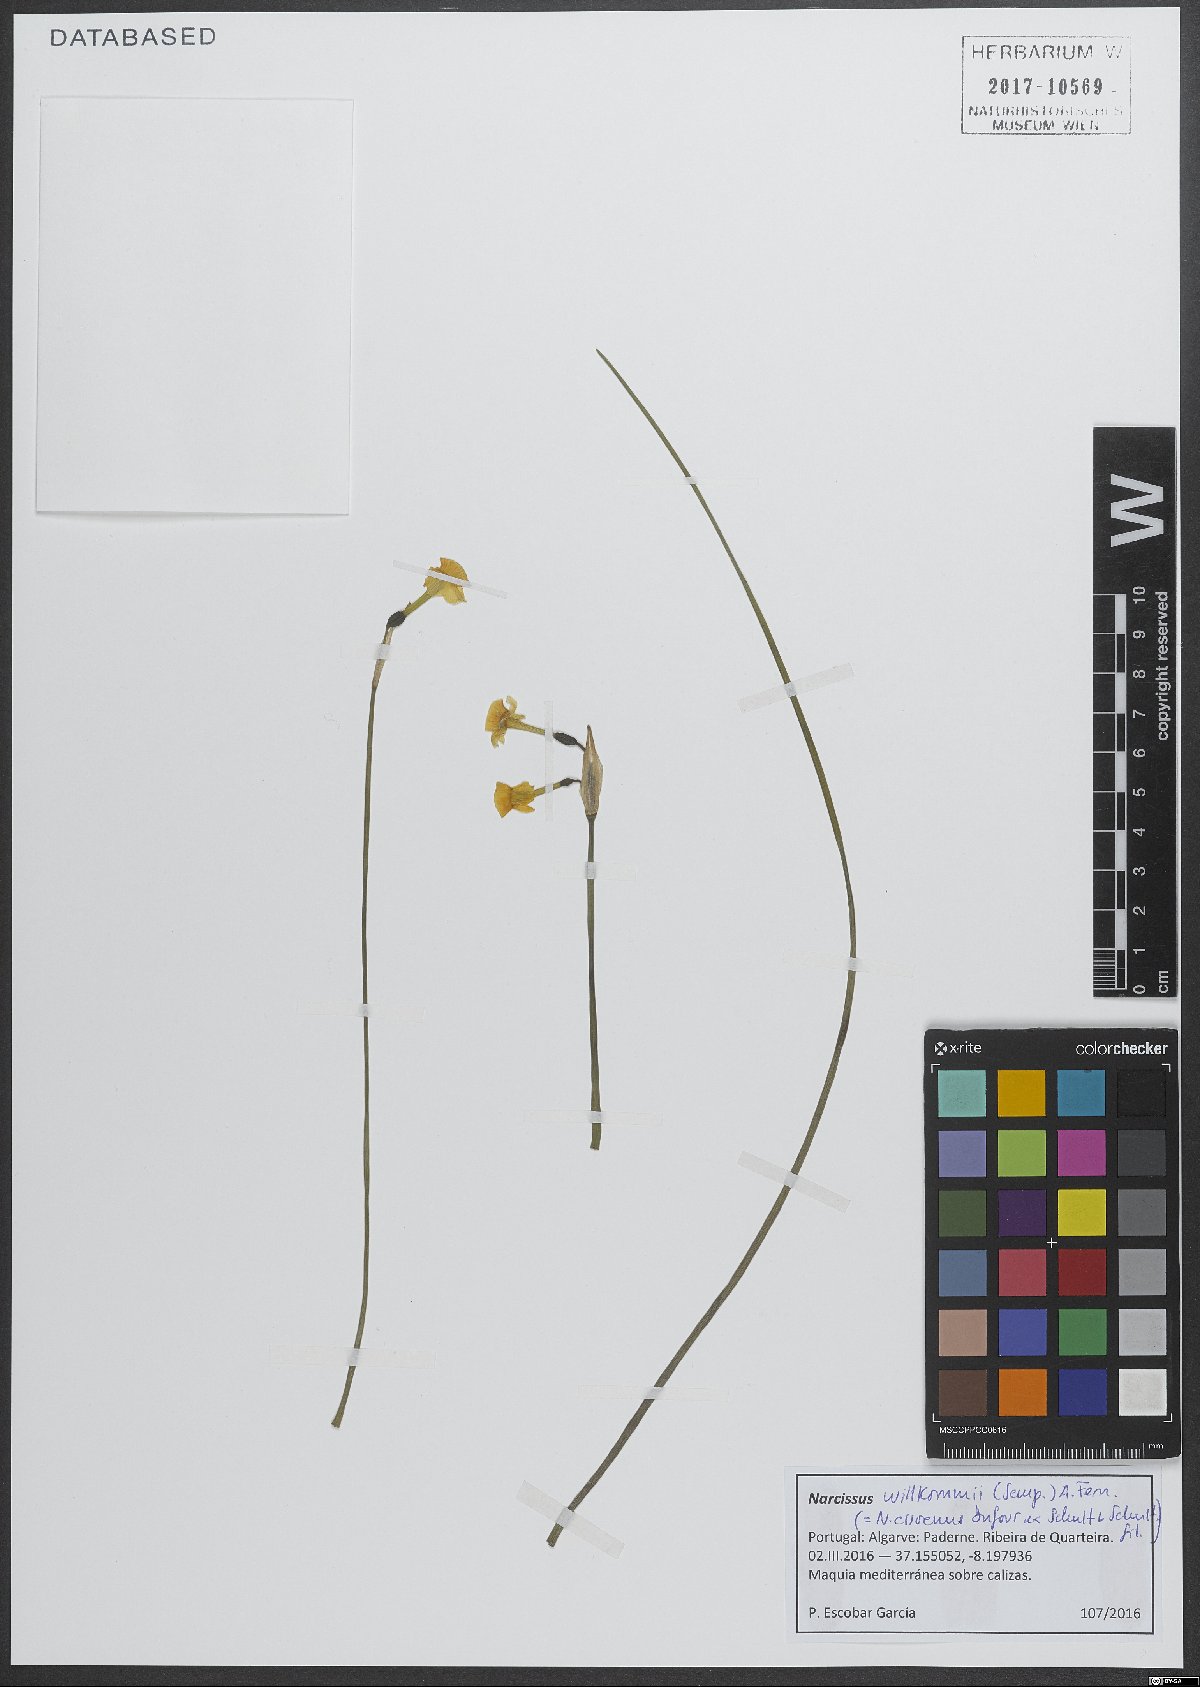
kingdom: Plantae
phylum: Tracheophyta
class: Liliopsida
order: Asparagales
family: Amaryllidaceae
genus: Narcissus
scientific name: Narcissus willkommii
